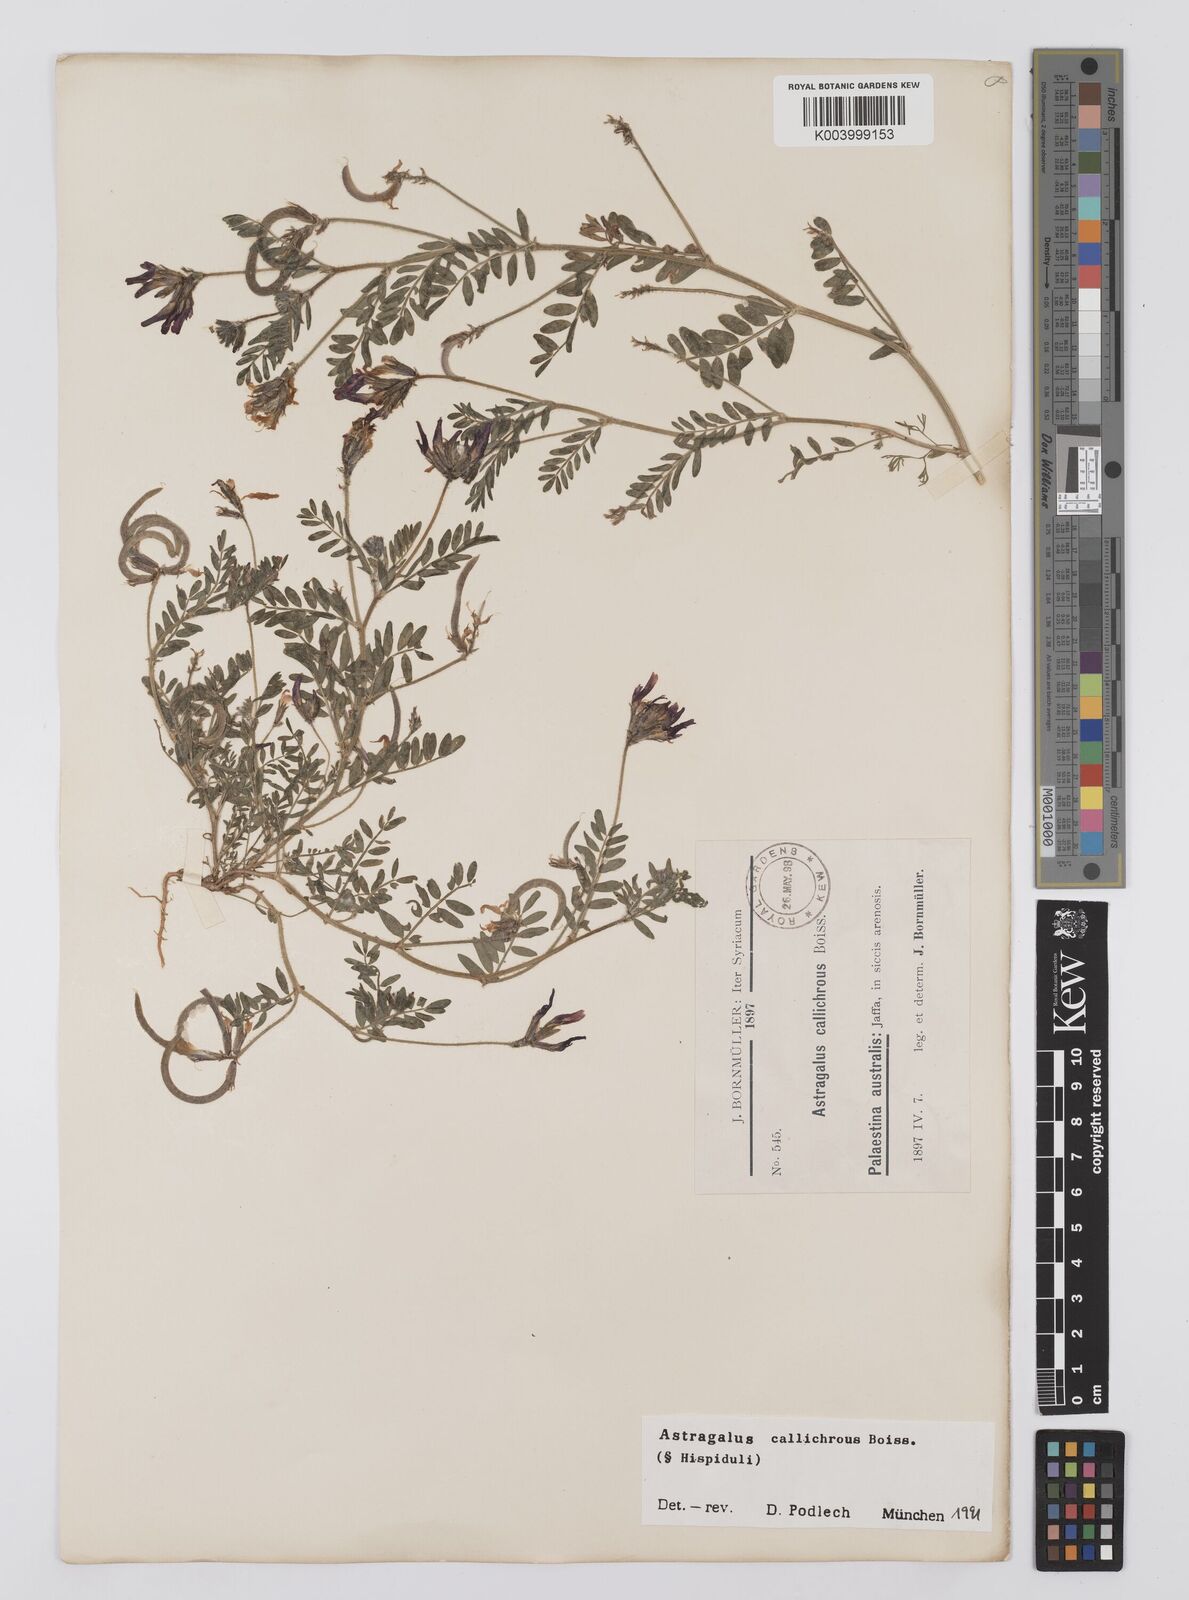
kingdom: Plantae
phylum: Tracheophyta
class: Magnoliopsida
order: Fabales
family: Fabaceae
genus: Astragalus
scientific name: Astragalus callichrous
